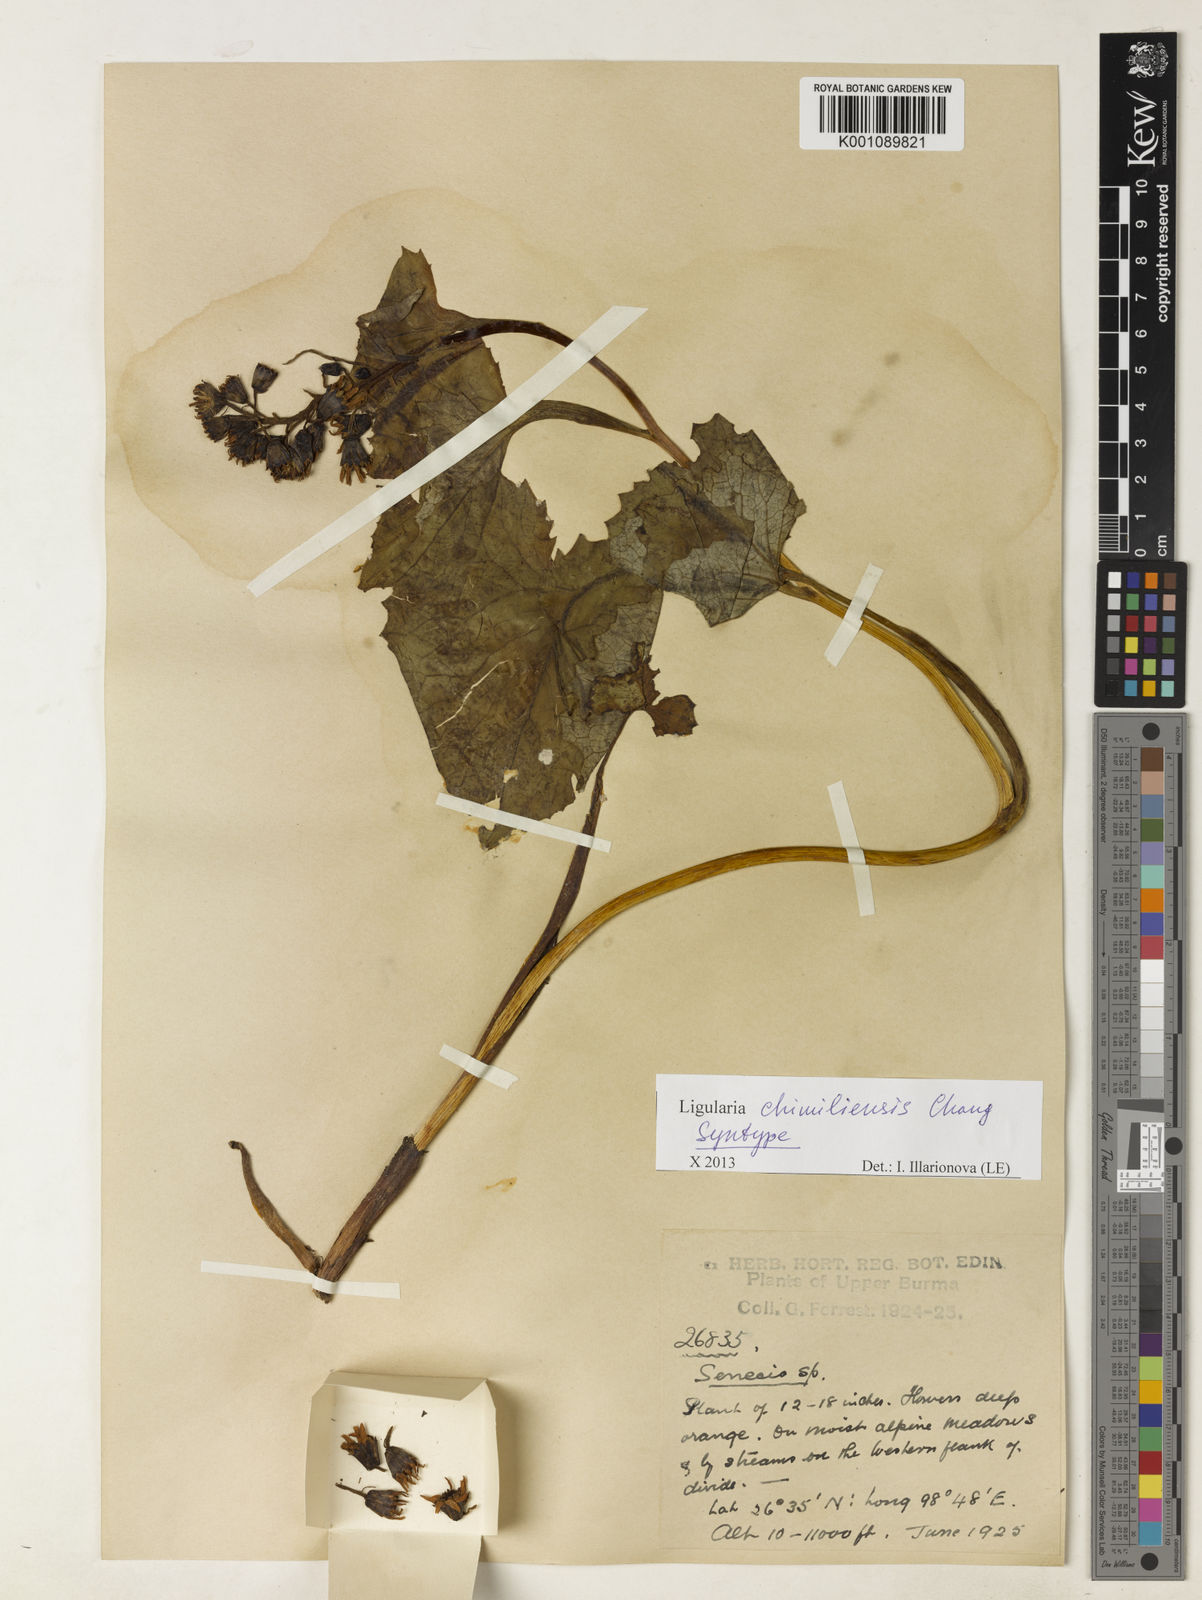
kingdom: Plantae
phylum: Tracheophyta
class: Magnoliopsida
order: Asterales
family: Asteraceae
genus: Ligularia
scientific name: Ligularia chimiliensis
